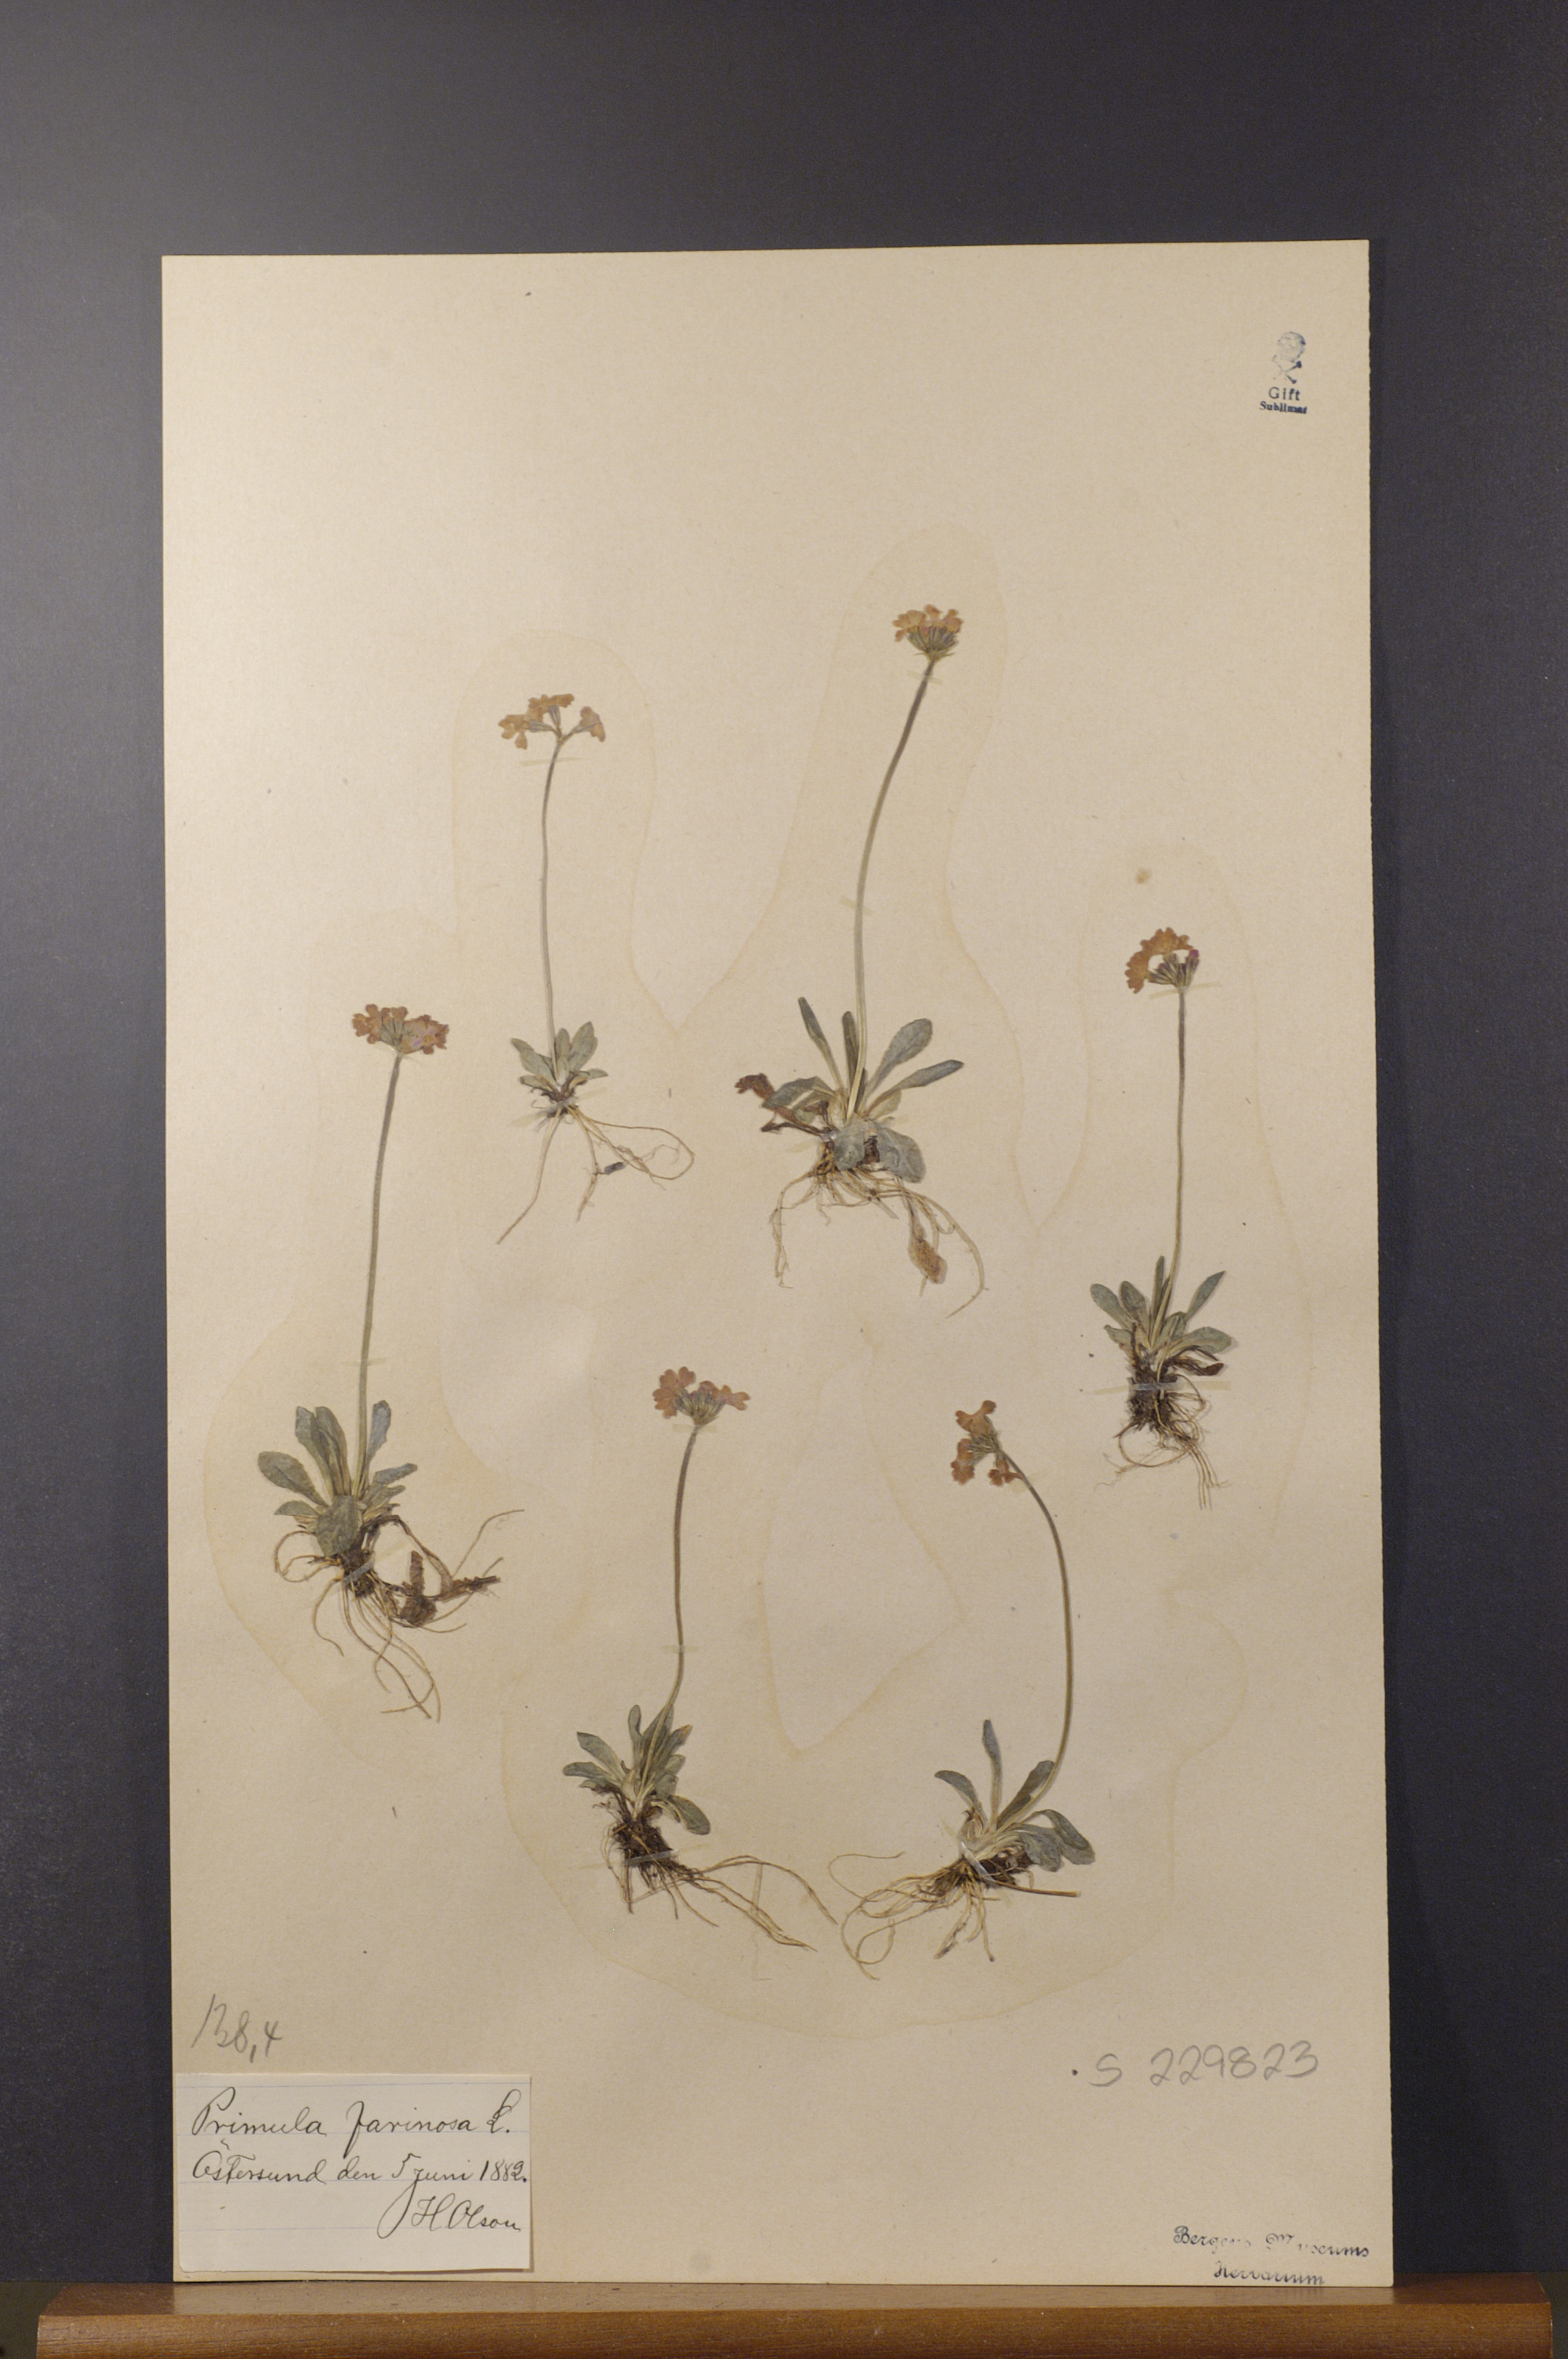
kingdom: Plantae
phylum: Tracheophyta
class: Magnoliopsida
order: Ericales
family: Primulaceae
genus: Primula
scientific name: Primula farinosa
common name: Bird's-eye primrose
